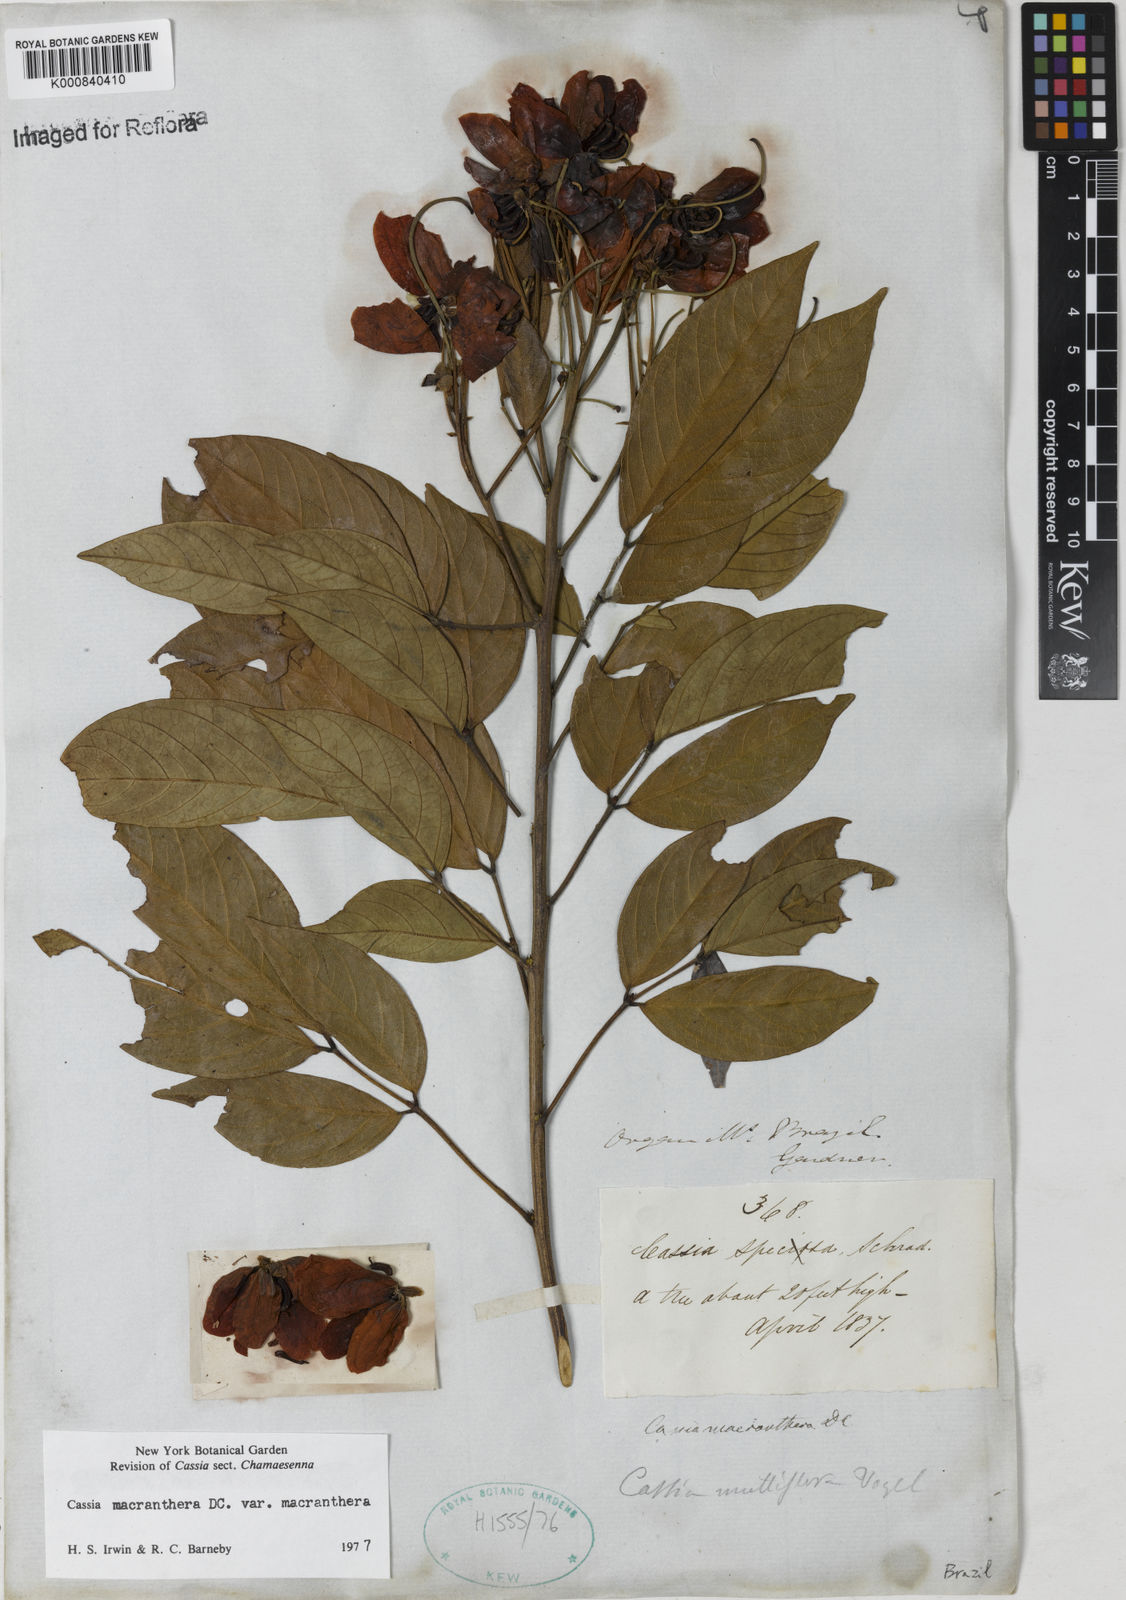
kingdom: Plantae
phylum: Tracheophyta
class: Magnoliopsida
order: Fabales
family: Fabaceae
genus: Senna
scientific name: Senna macranthera
